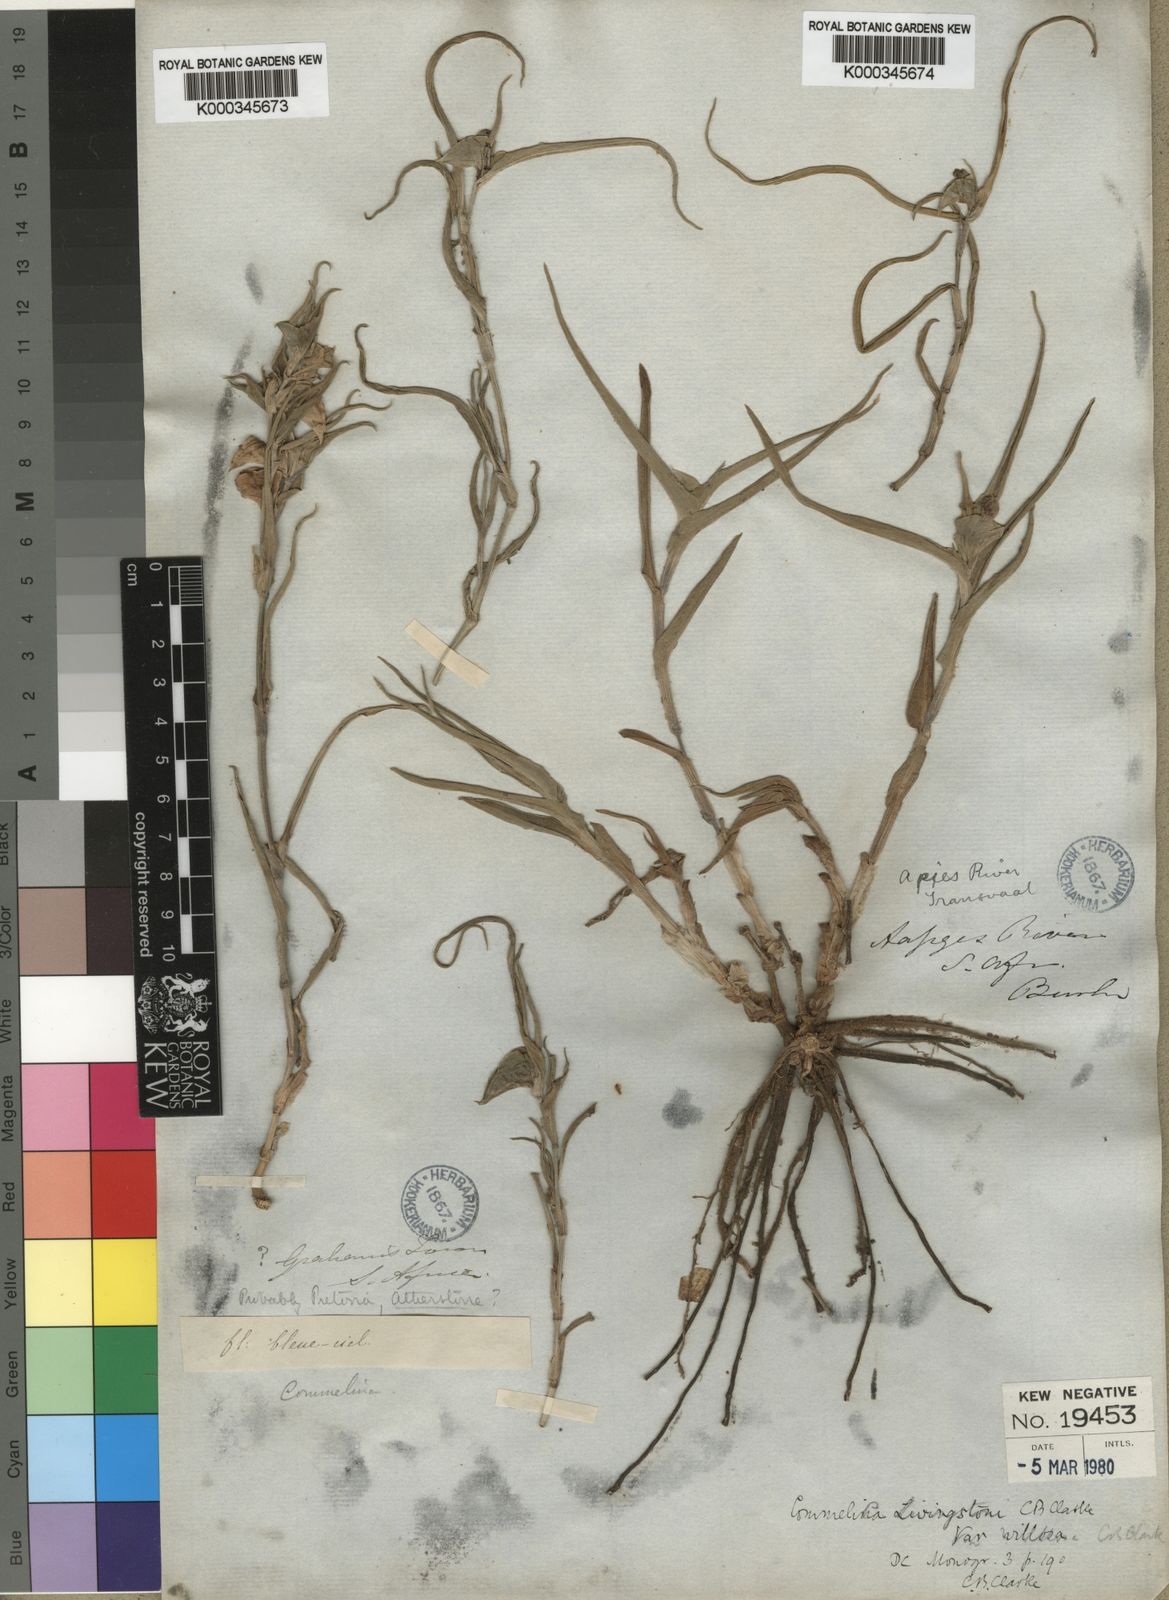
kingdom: Plantae
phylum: Tracheophyta
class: Liliopsida
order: Commelinales
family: Commelinaceae
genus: Commelina
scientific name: Commelina erecta
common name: Blousel blommetjie
